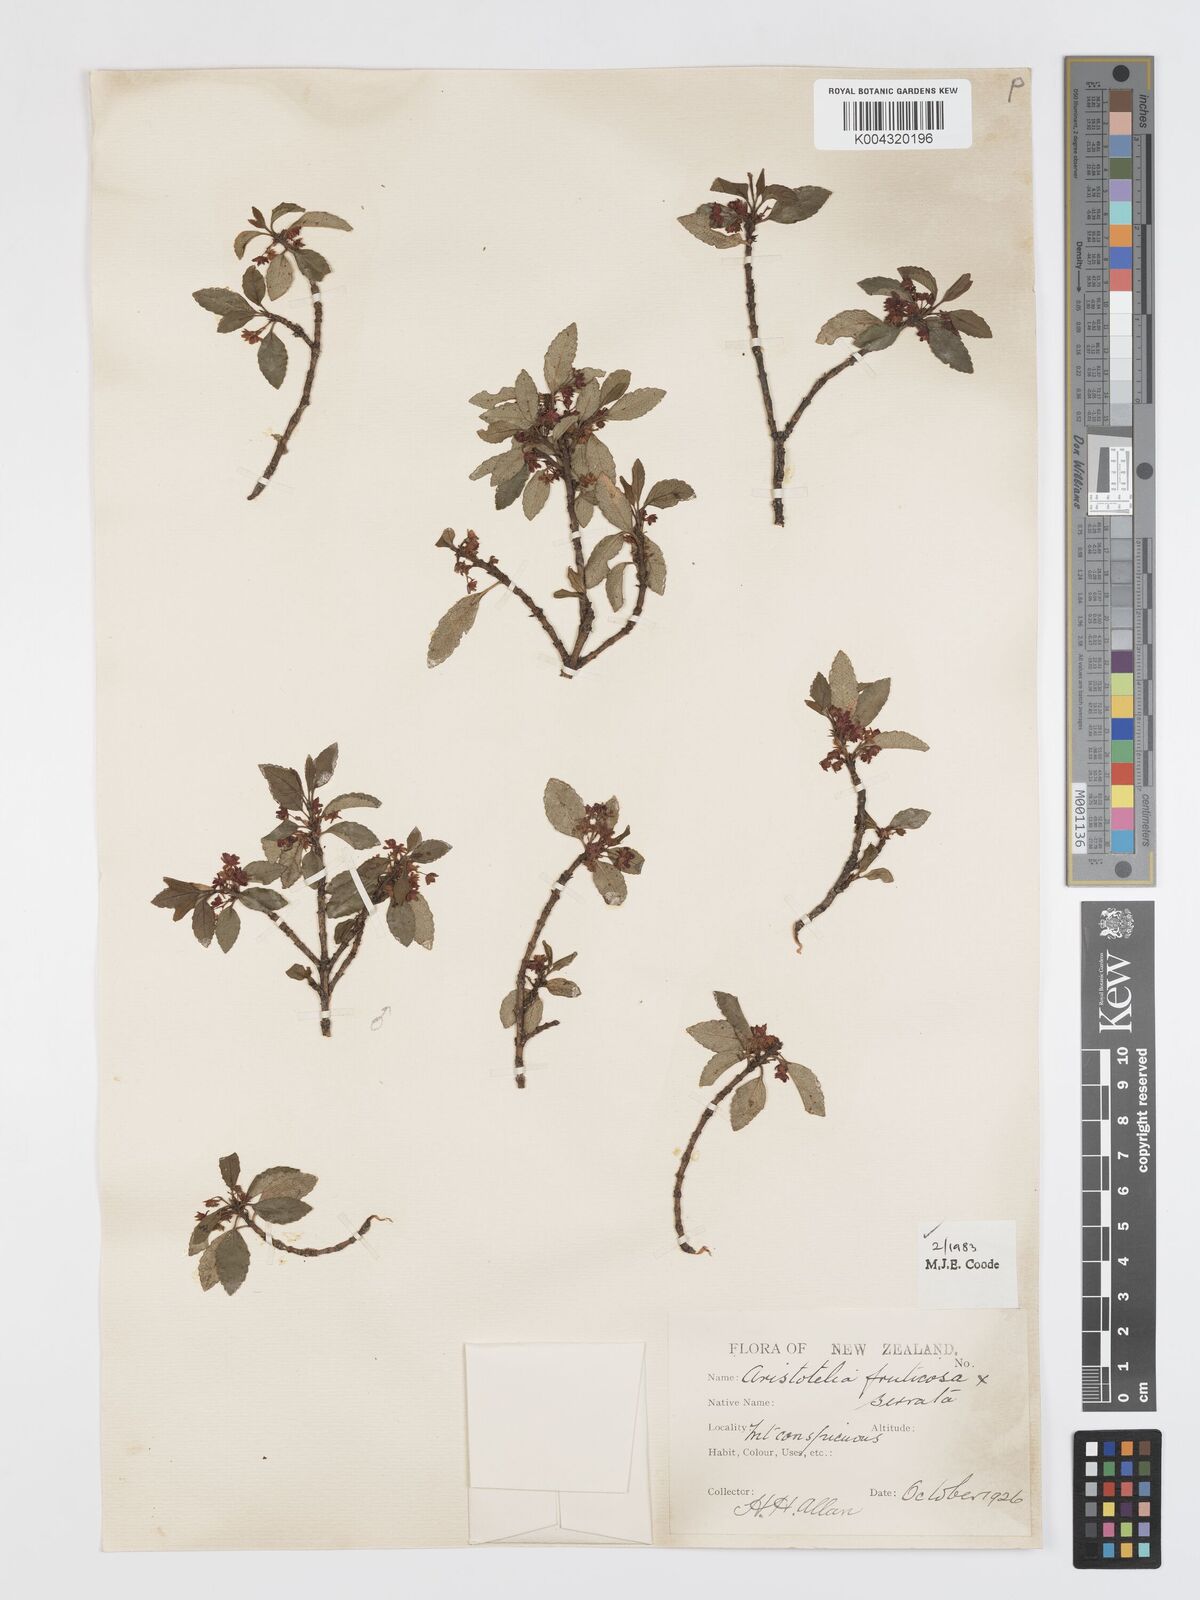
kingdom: Plantae
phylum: Tracheophyta
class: Magnoliopsida
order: Oxalidales
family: Elaeocarpaceae
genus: Aristotelia
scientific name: Aristotelia fruticosa
